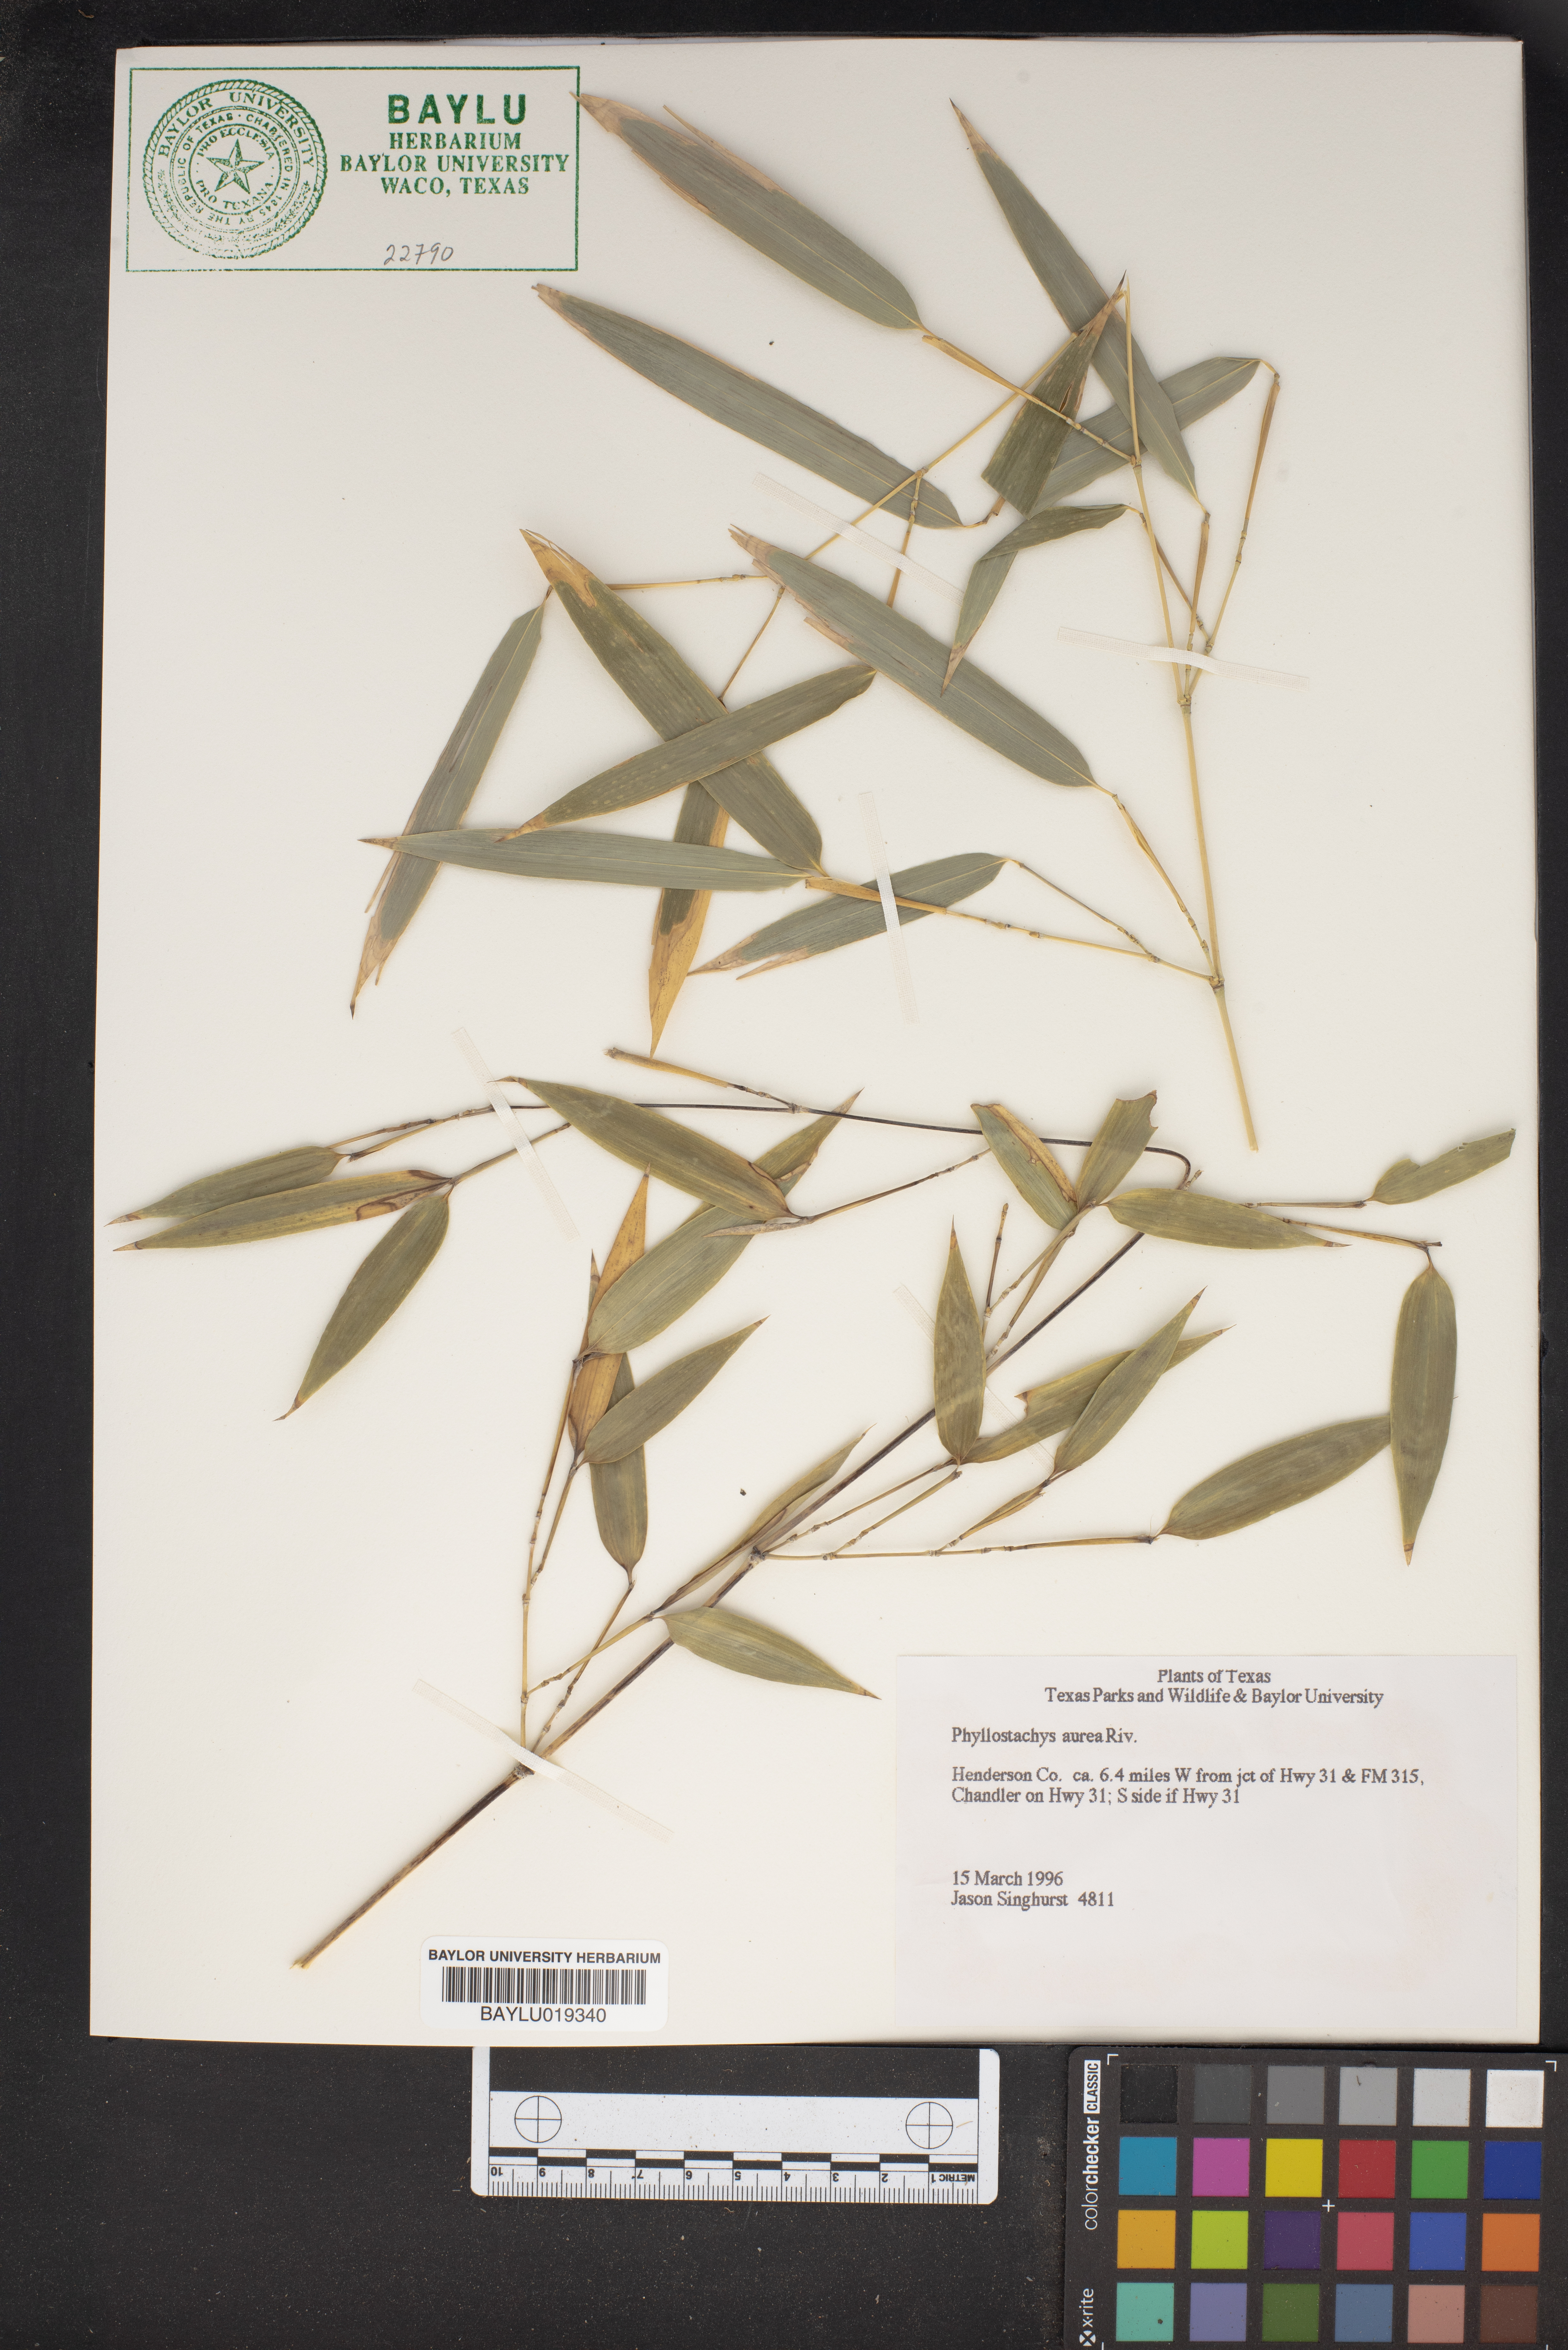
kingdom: Plantae
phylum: Tracheophyta
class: Liliopsida
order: Poales
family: Poaceae
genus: Phyllostachys
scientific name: Phyllostachys aurea
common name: Golden bamboo
